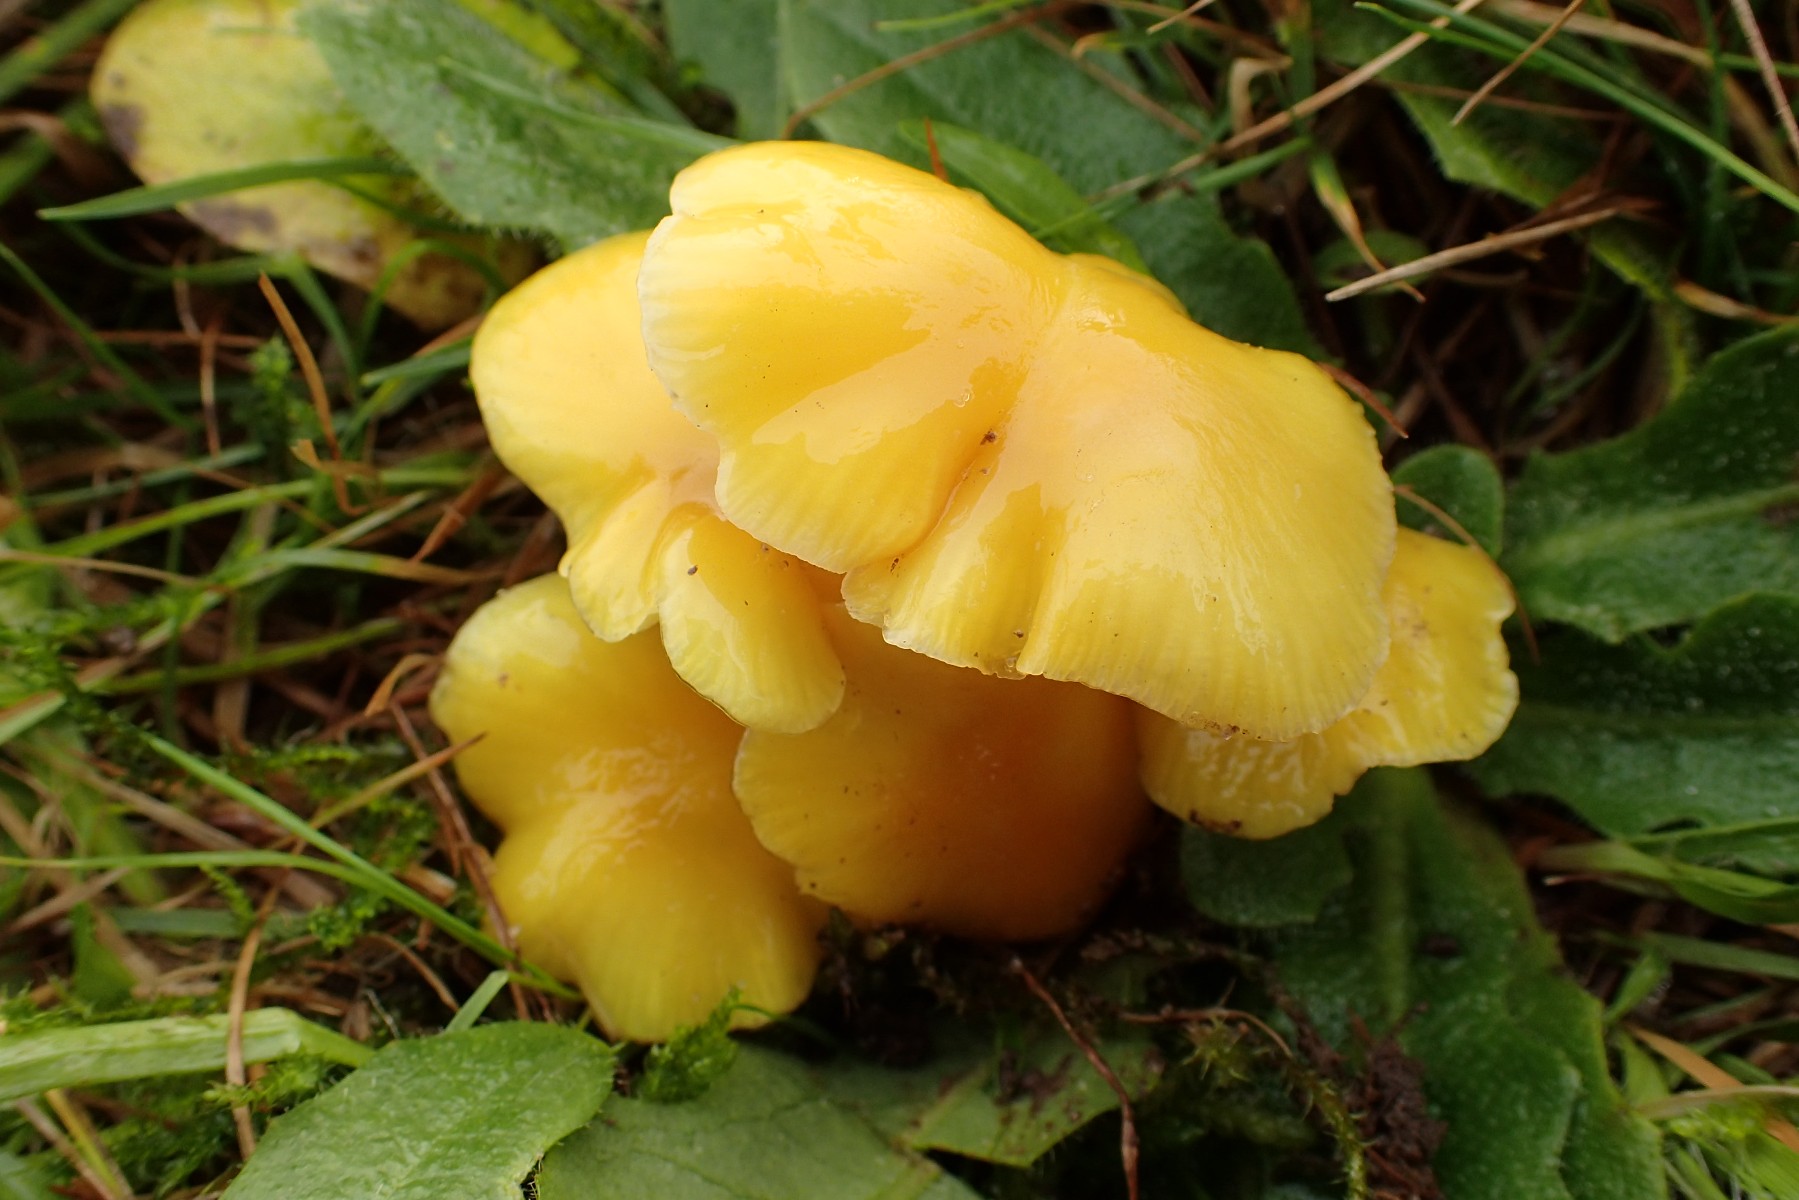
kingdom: Fungi
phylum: Basidiomycota
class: Agaricomycetes
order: Agaricales
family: Hygrophoraceae
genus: Hygrocybe
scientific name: Hygrocybe chlorophana
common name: gul vokshat
